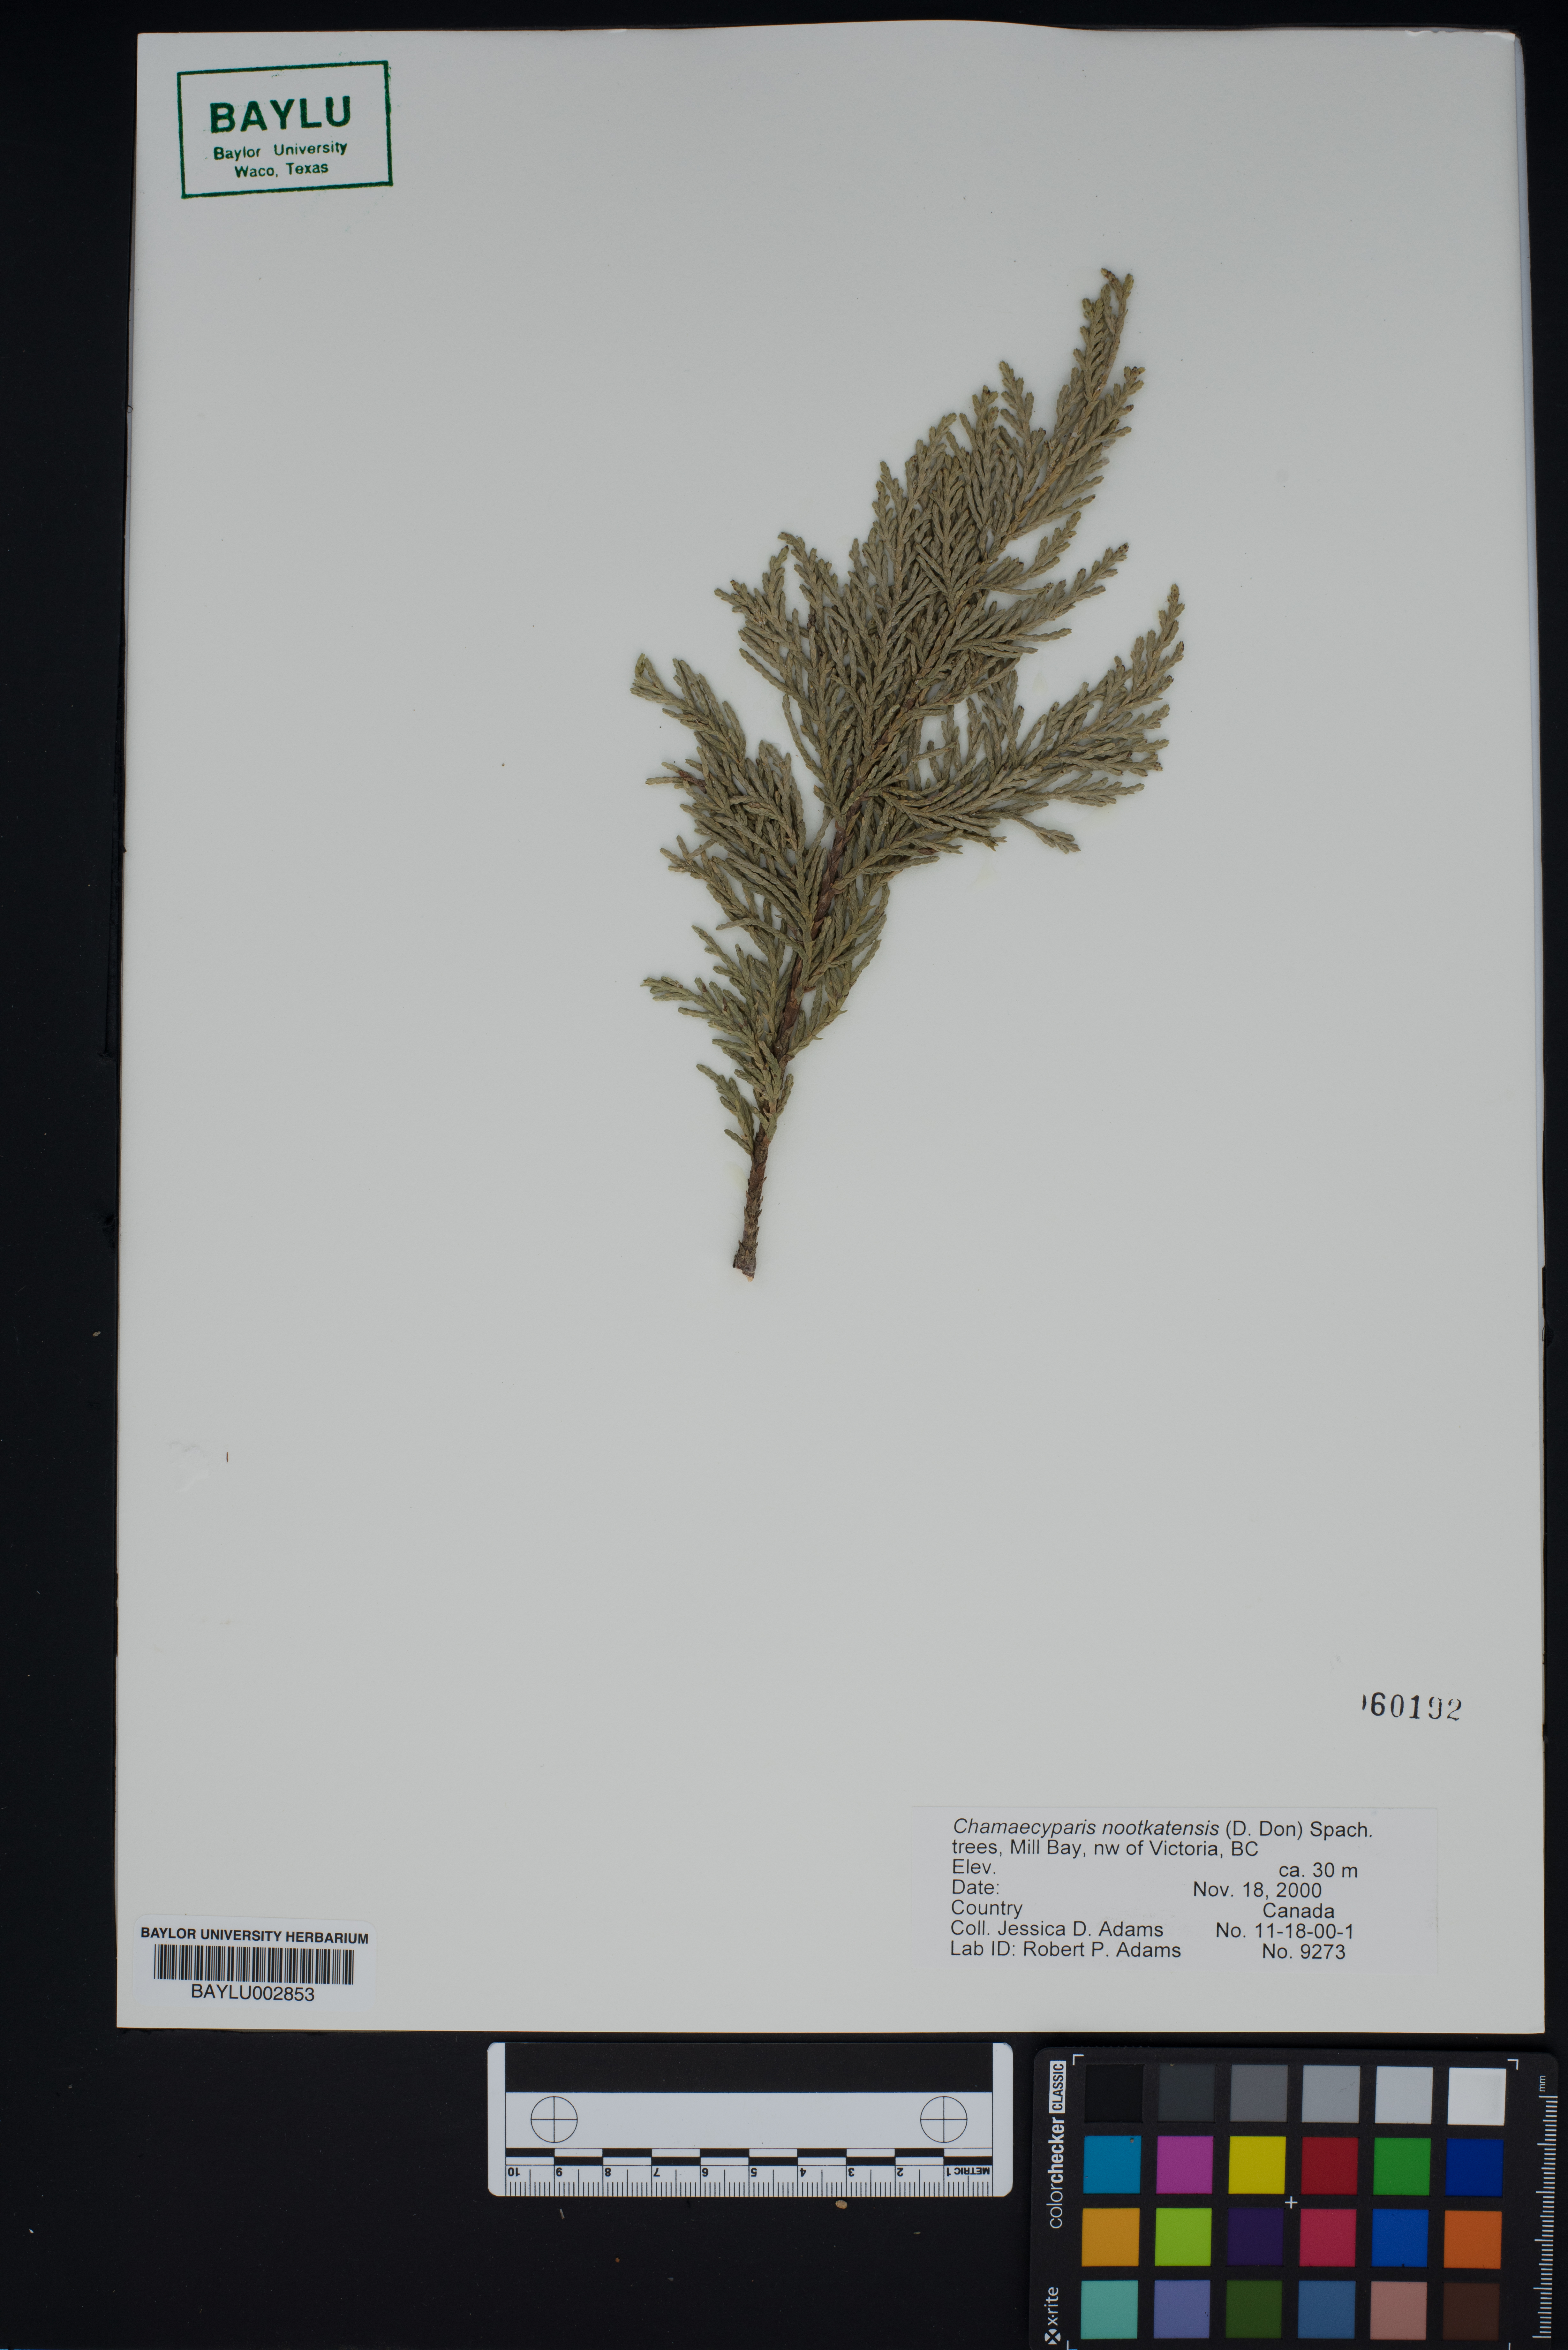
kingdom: Plantae
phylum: Tracheophyta
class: Pinopsida
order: Pinales
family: Cupressaceae
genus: Xanthocyparis
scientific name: Xanthocyparis nootkatensis
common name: Nootka cypress
